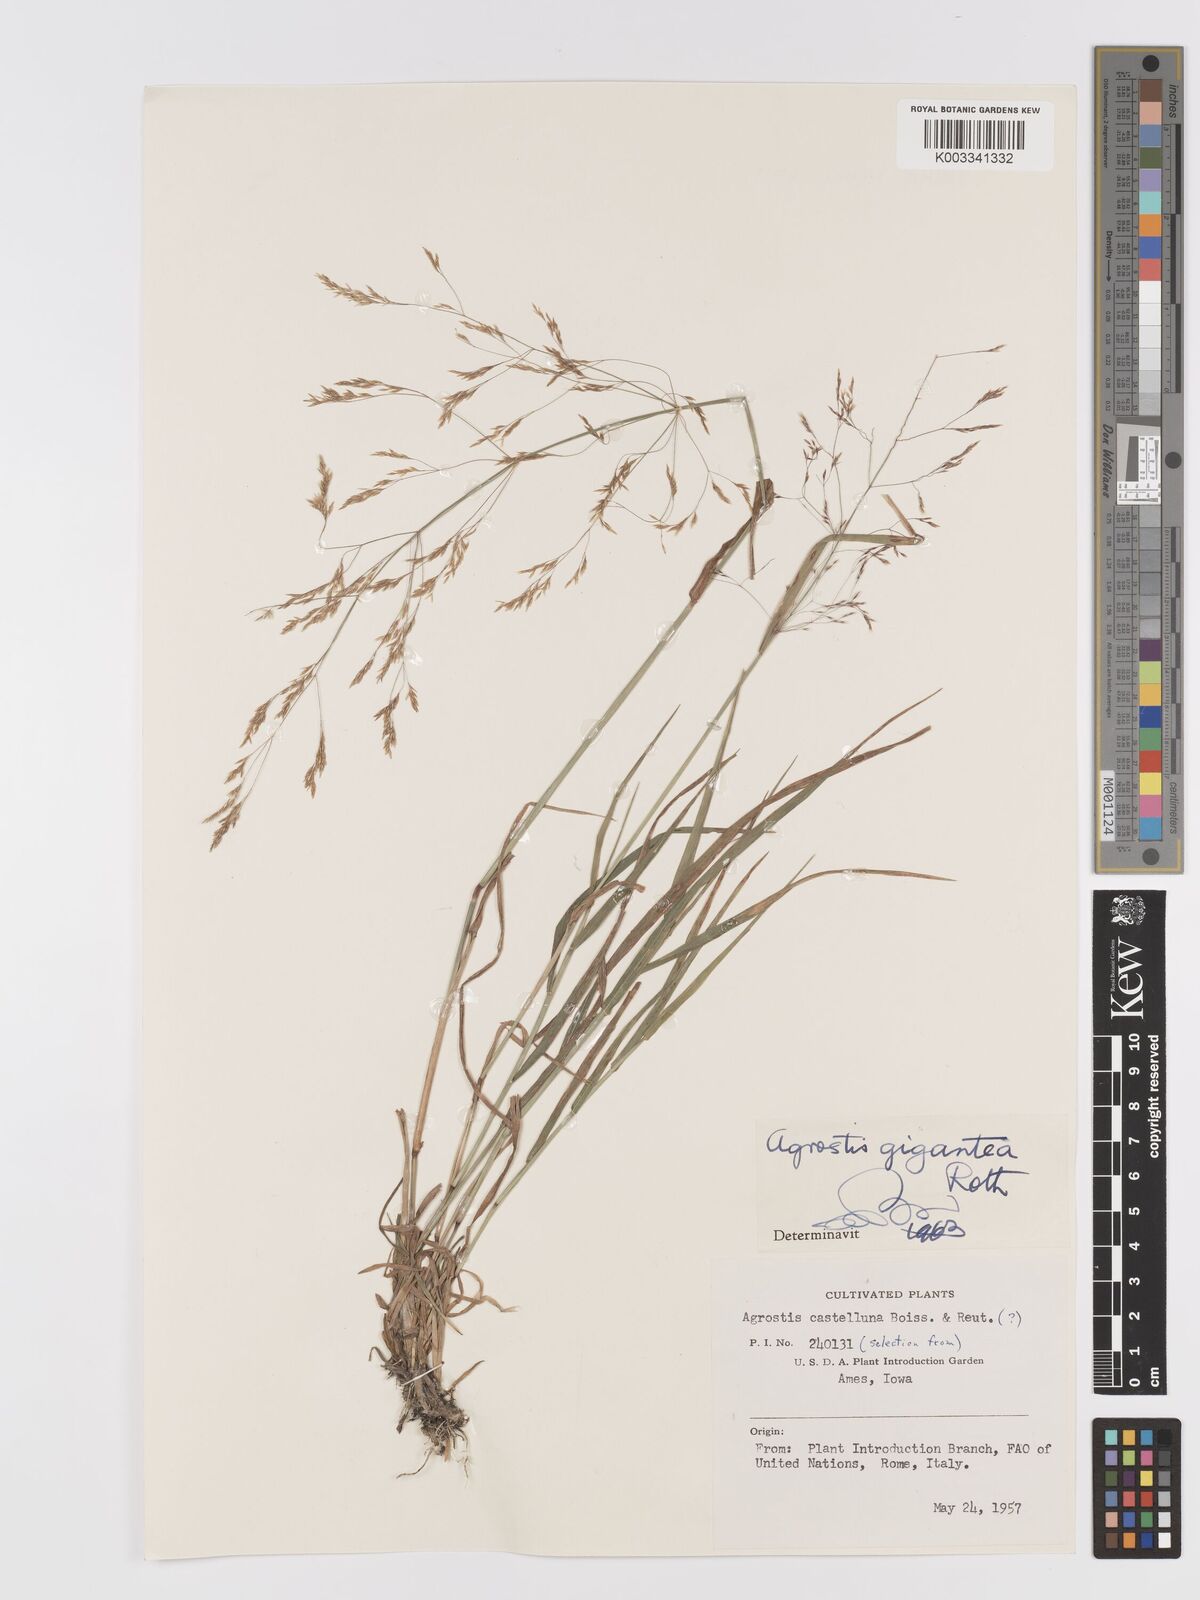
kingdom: Plantae
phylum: Tracheophyta
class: Liliopsida
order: Poales
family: Poaceae
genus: Agrostis
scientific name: Agrostis gigantea
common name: Black bent
